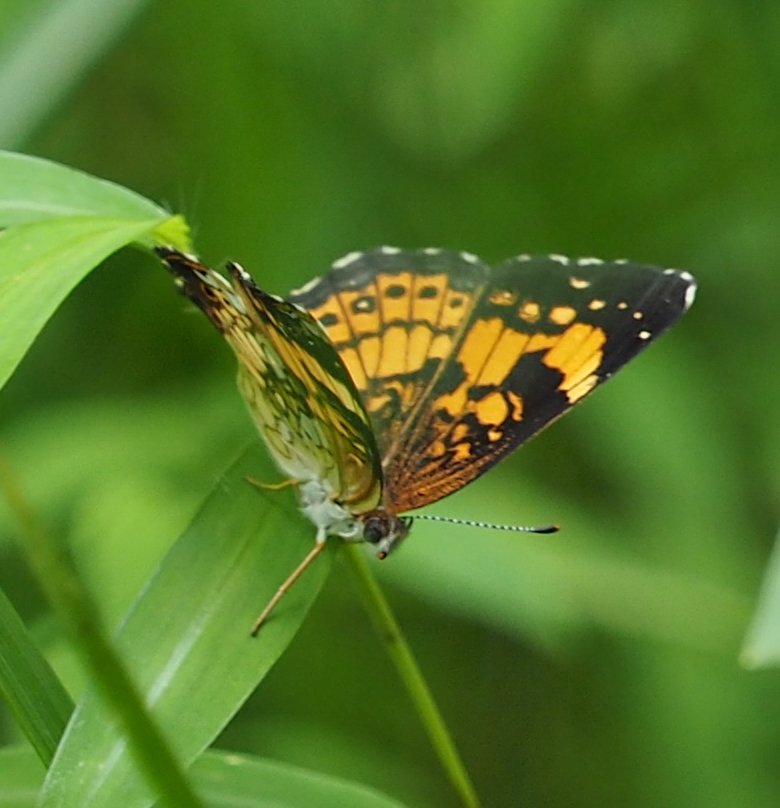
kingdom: Animalia
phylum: Arthropoda
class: Insecta
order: Lepidoptera
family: Nymphalidae
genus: Chlosyne
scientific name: Chlosyne nycteis
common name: Silvery Checkerspot
